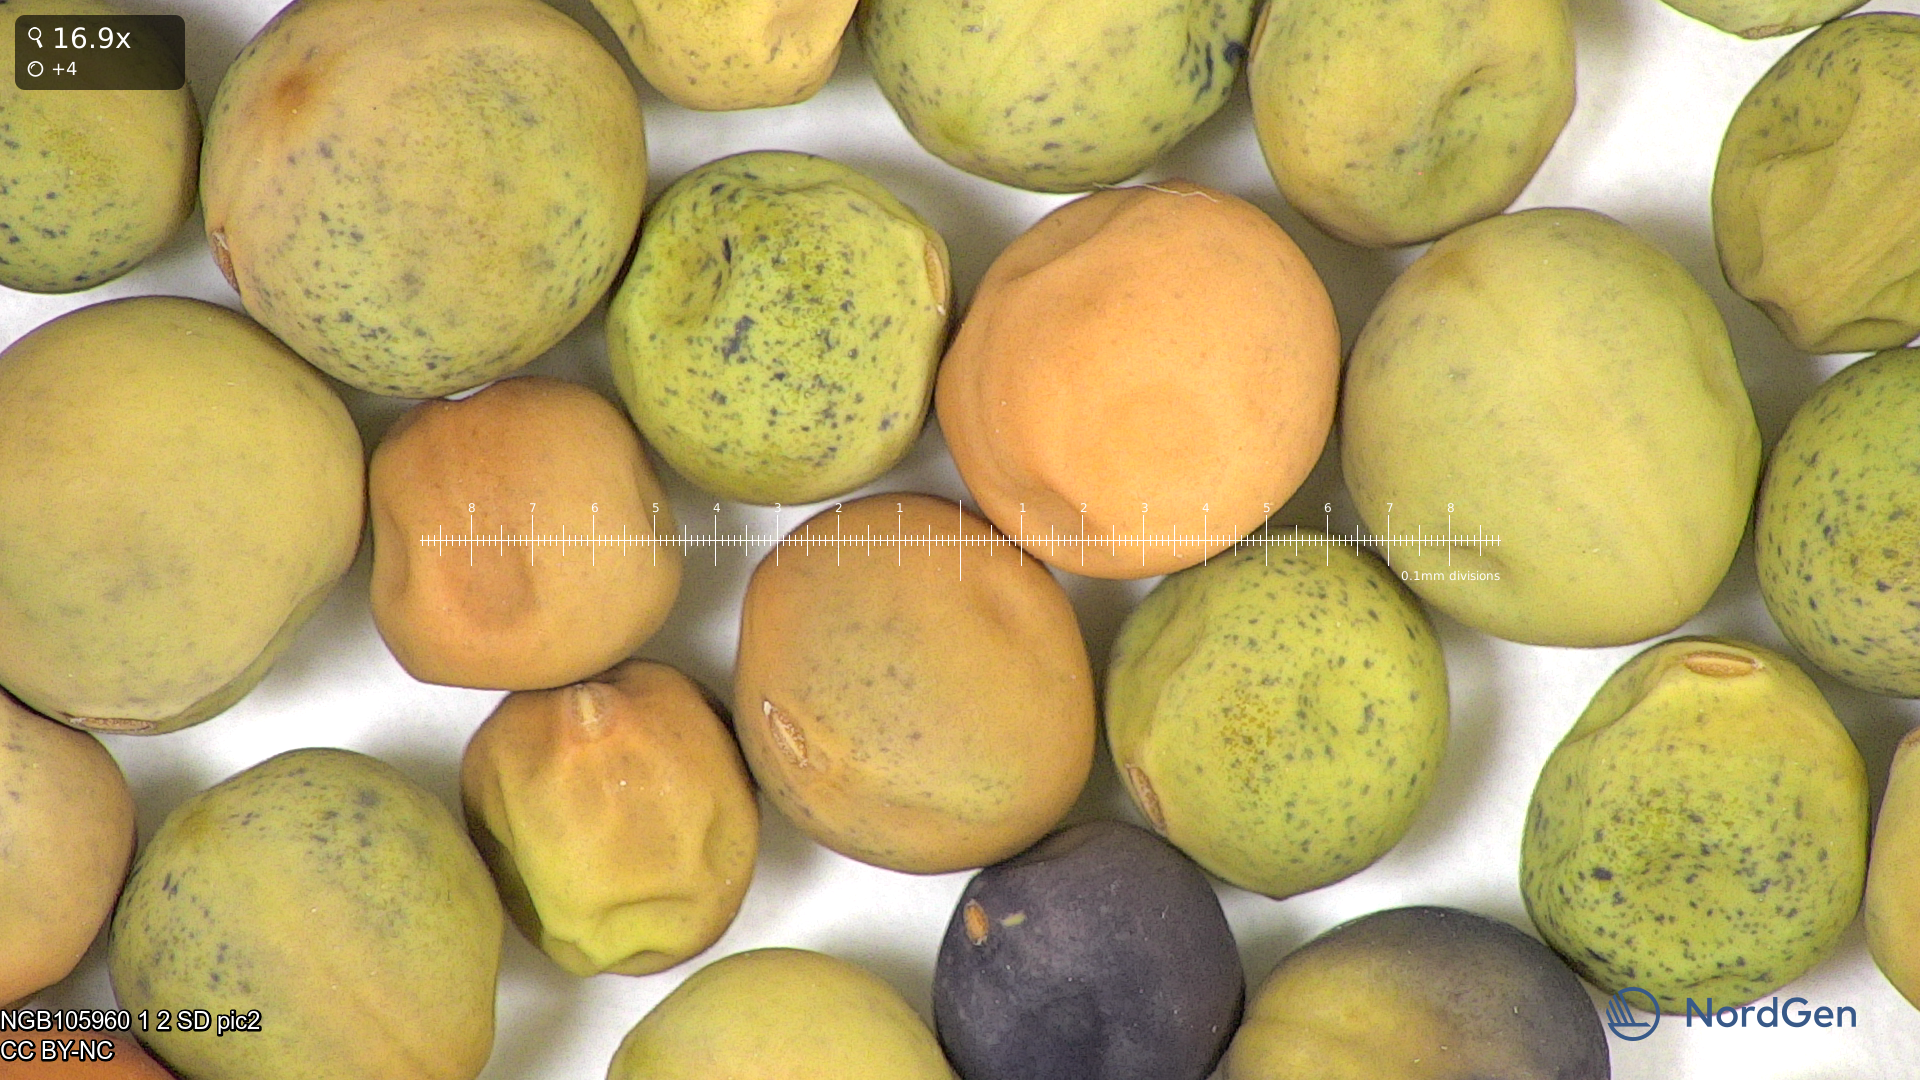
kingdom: Plantae
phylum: Tracheophyta
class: Magnoliopsida
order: Fabales
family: Fabaceae
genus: Lathyrus
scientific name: Lathyrus oleraceus
